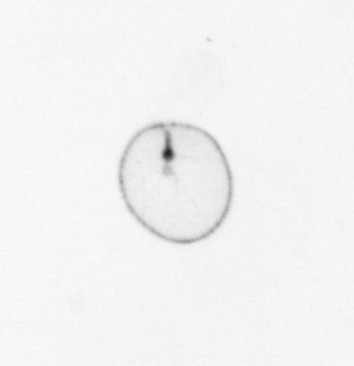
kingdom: Chromista
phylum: Myzozoa
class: Dinophyceae
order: Noctilucales
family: Noctilucaceae
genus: Noctiluca
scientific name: Noctiluca scintillans
